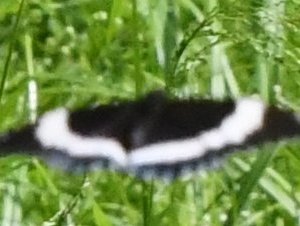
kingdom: Animalia
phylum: Arthropoda
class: Insecta
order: Lepidoptera
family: Nymphalidae
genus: Limenitis
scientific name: Limenitis arthemis
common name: Red-spotted Admiral
